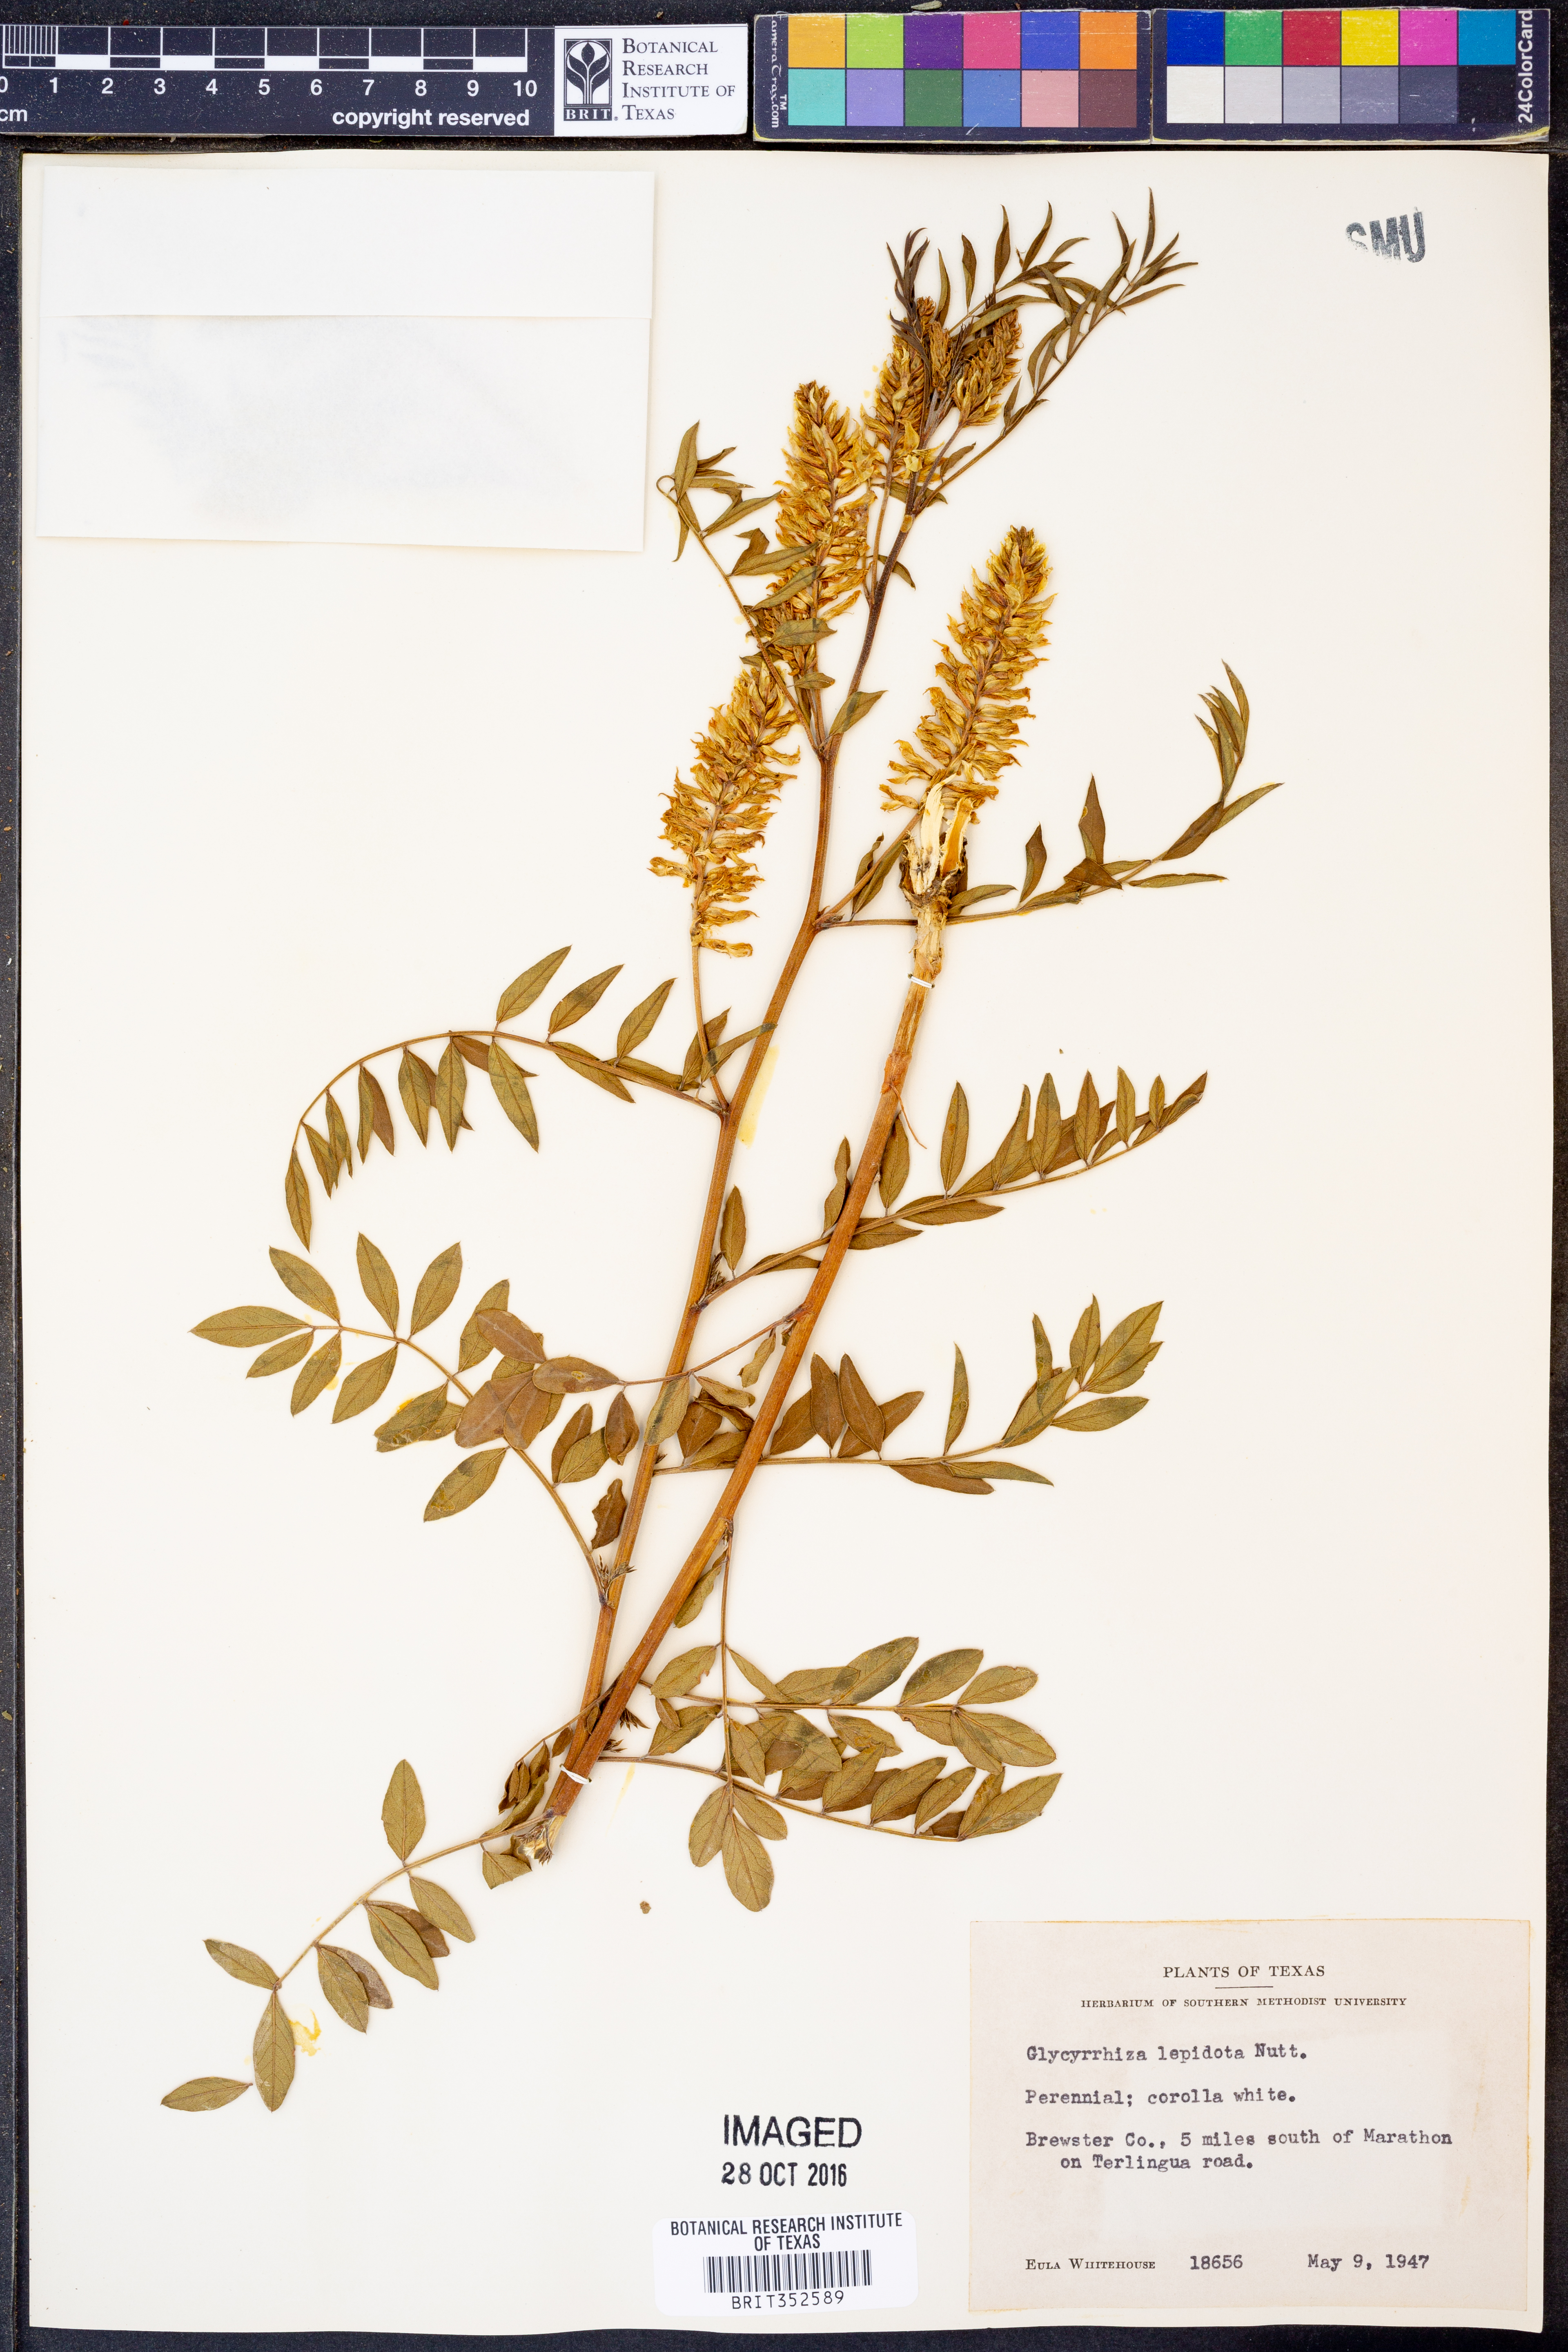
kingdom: Plantae
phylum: Tracheophyta
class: Magnoliopsida
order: Fabales
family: Fabaceae
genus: Glycyrrhiza
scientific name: Glycyrrhiza lepidota
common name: American liquorice
